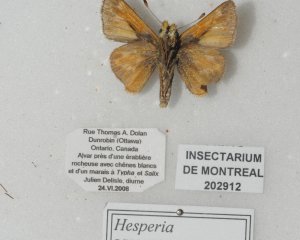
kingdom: Animalia
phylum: Arthropoda
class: Insecta
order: Lepidoptera
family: Hesperiidae
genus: Hesperia
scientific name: Hesperia sassacus
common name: Sassacus Skipper
